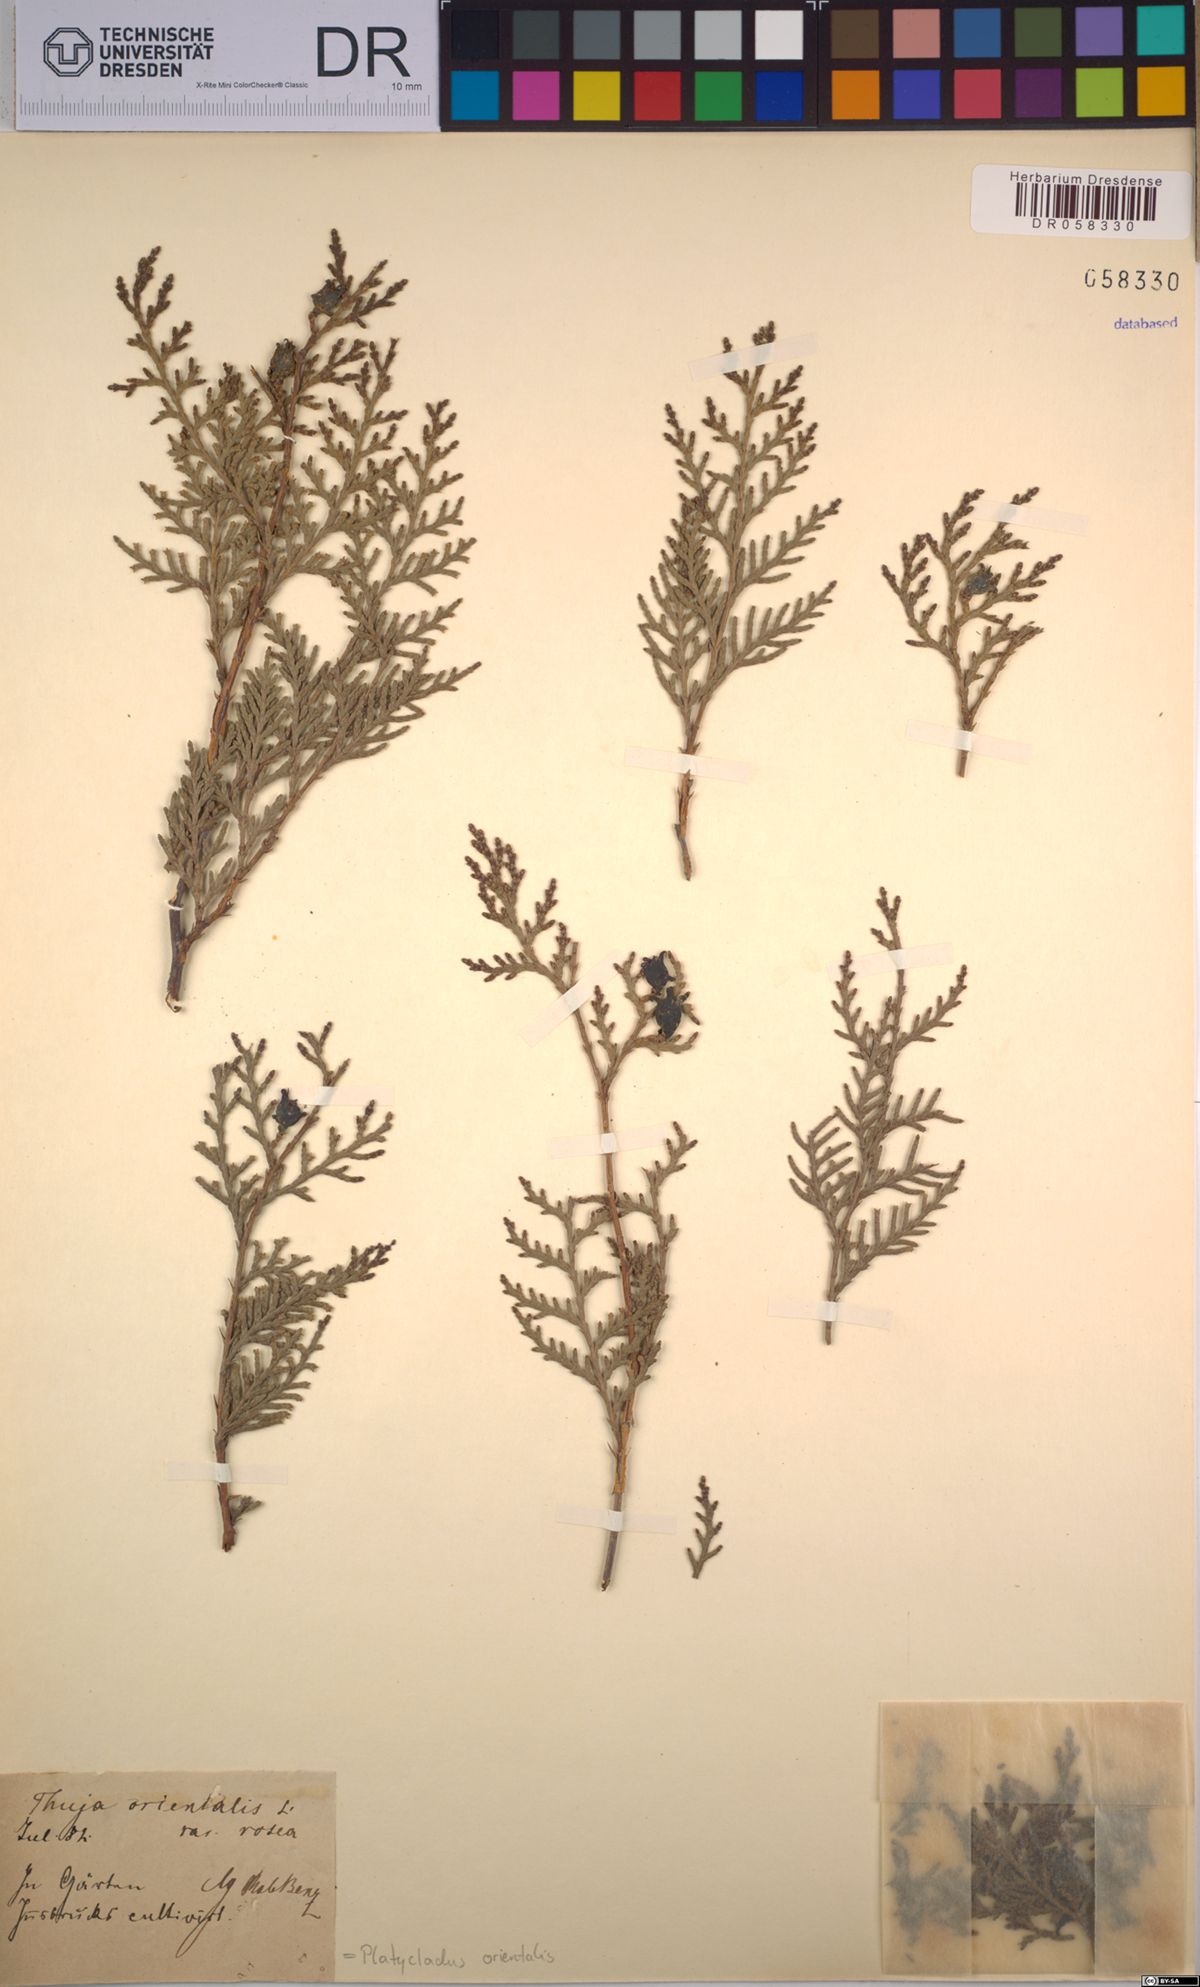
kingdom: Plantae
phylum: Tracheophyta
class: Pinopsida
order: Pinales
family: Cupressaceae
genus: Platycladus
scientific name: Platycladus orientalis
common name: Chinese thuja
